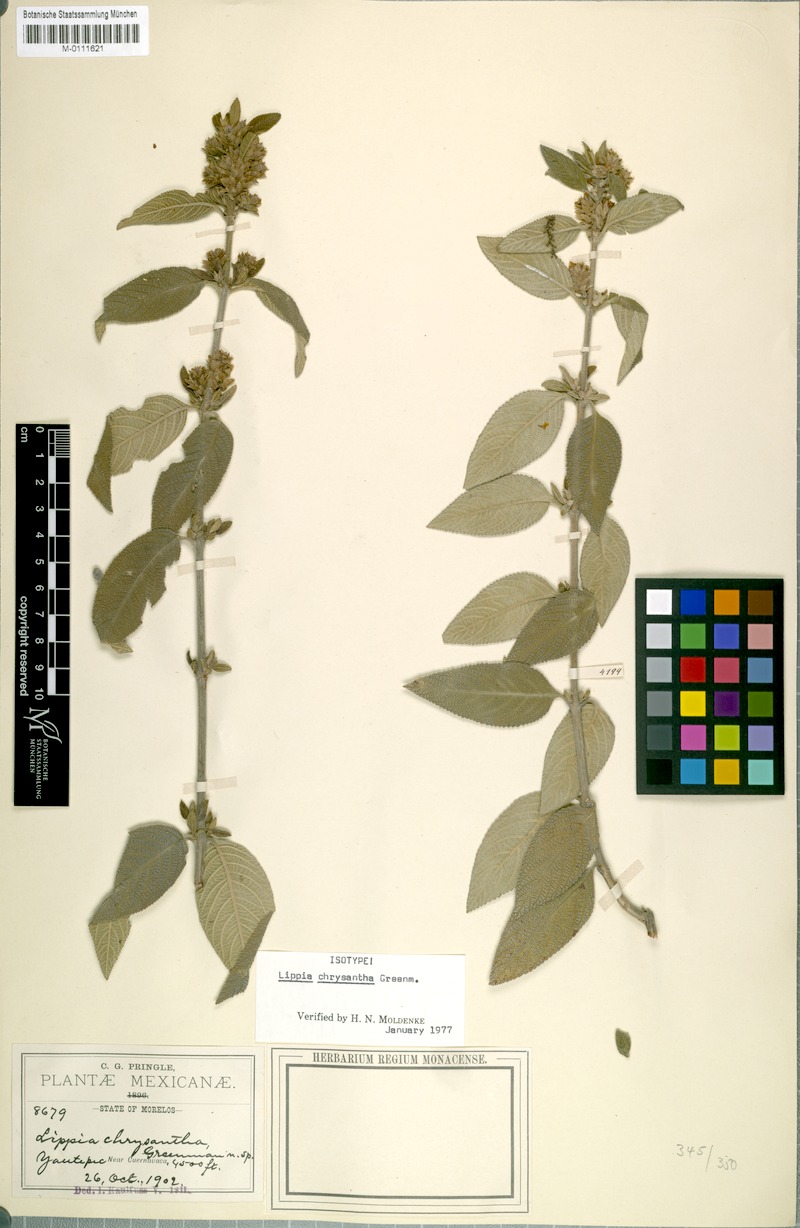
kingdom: Plantae
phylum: Tracheophyta
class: Magnoliopsida
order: Lamiales
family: Verbenaceae
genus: Lippia
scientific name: Lippia chrysantha
